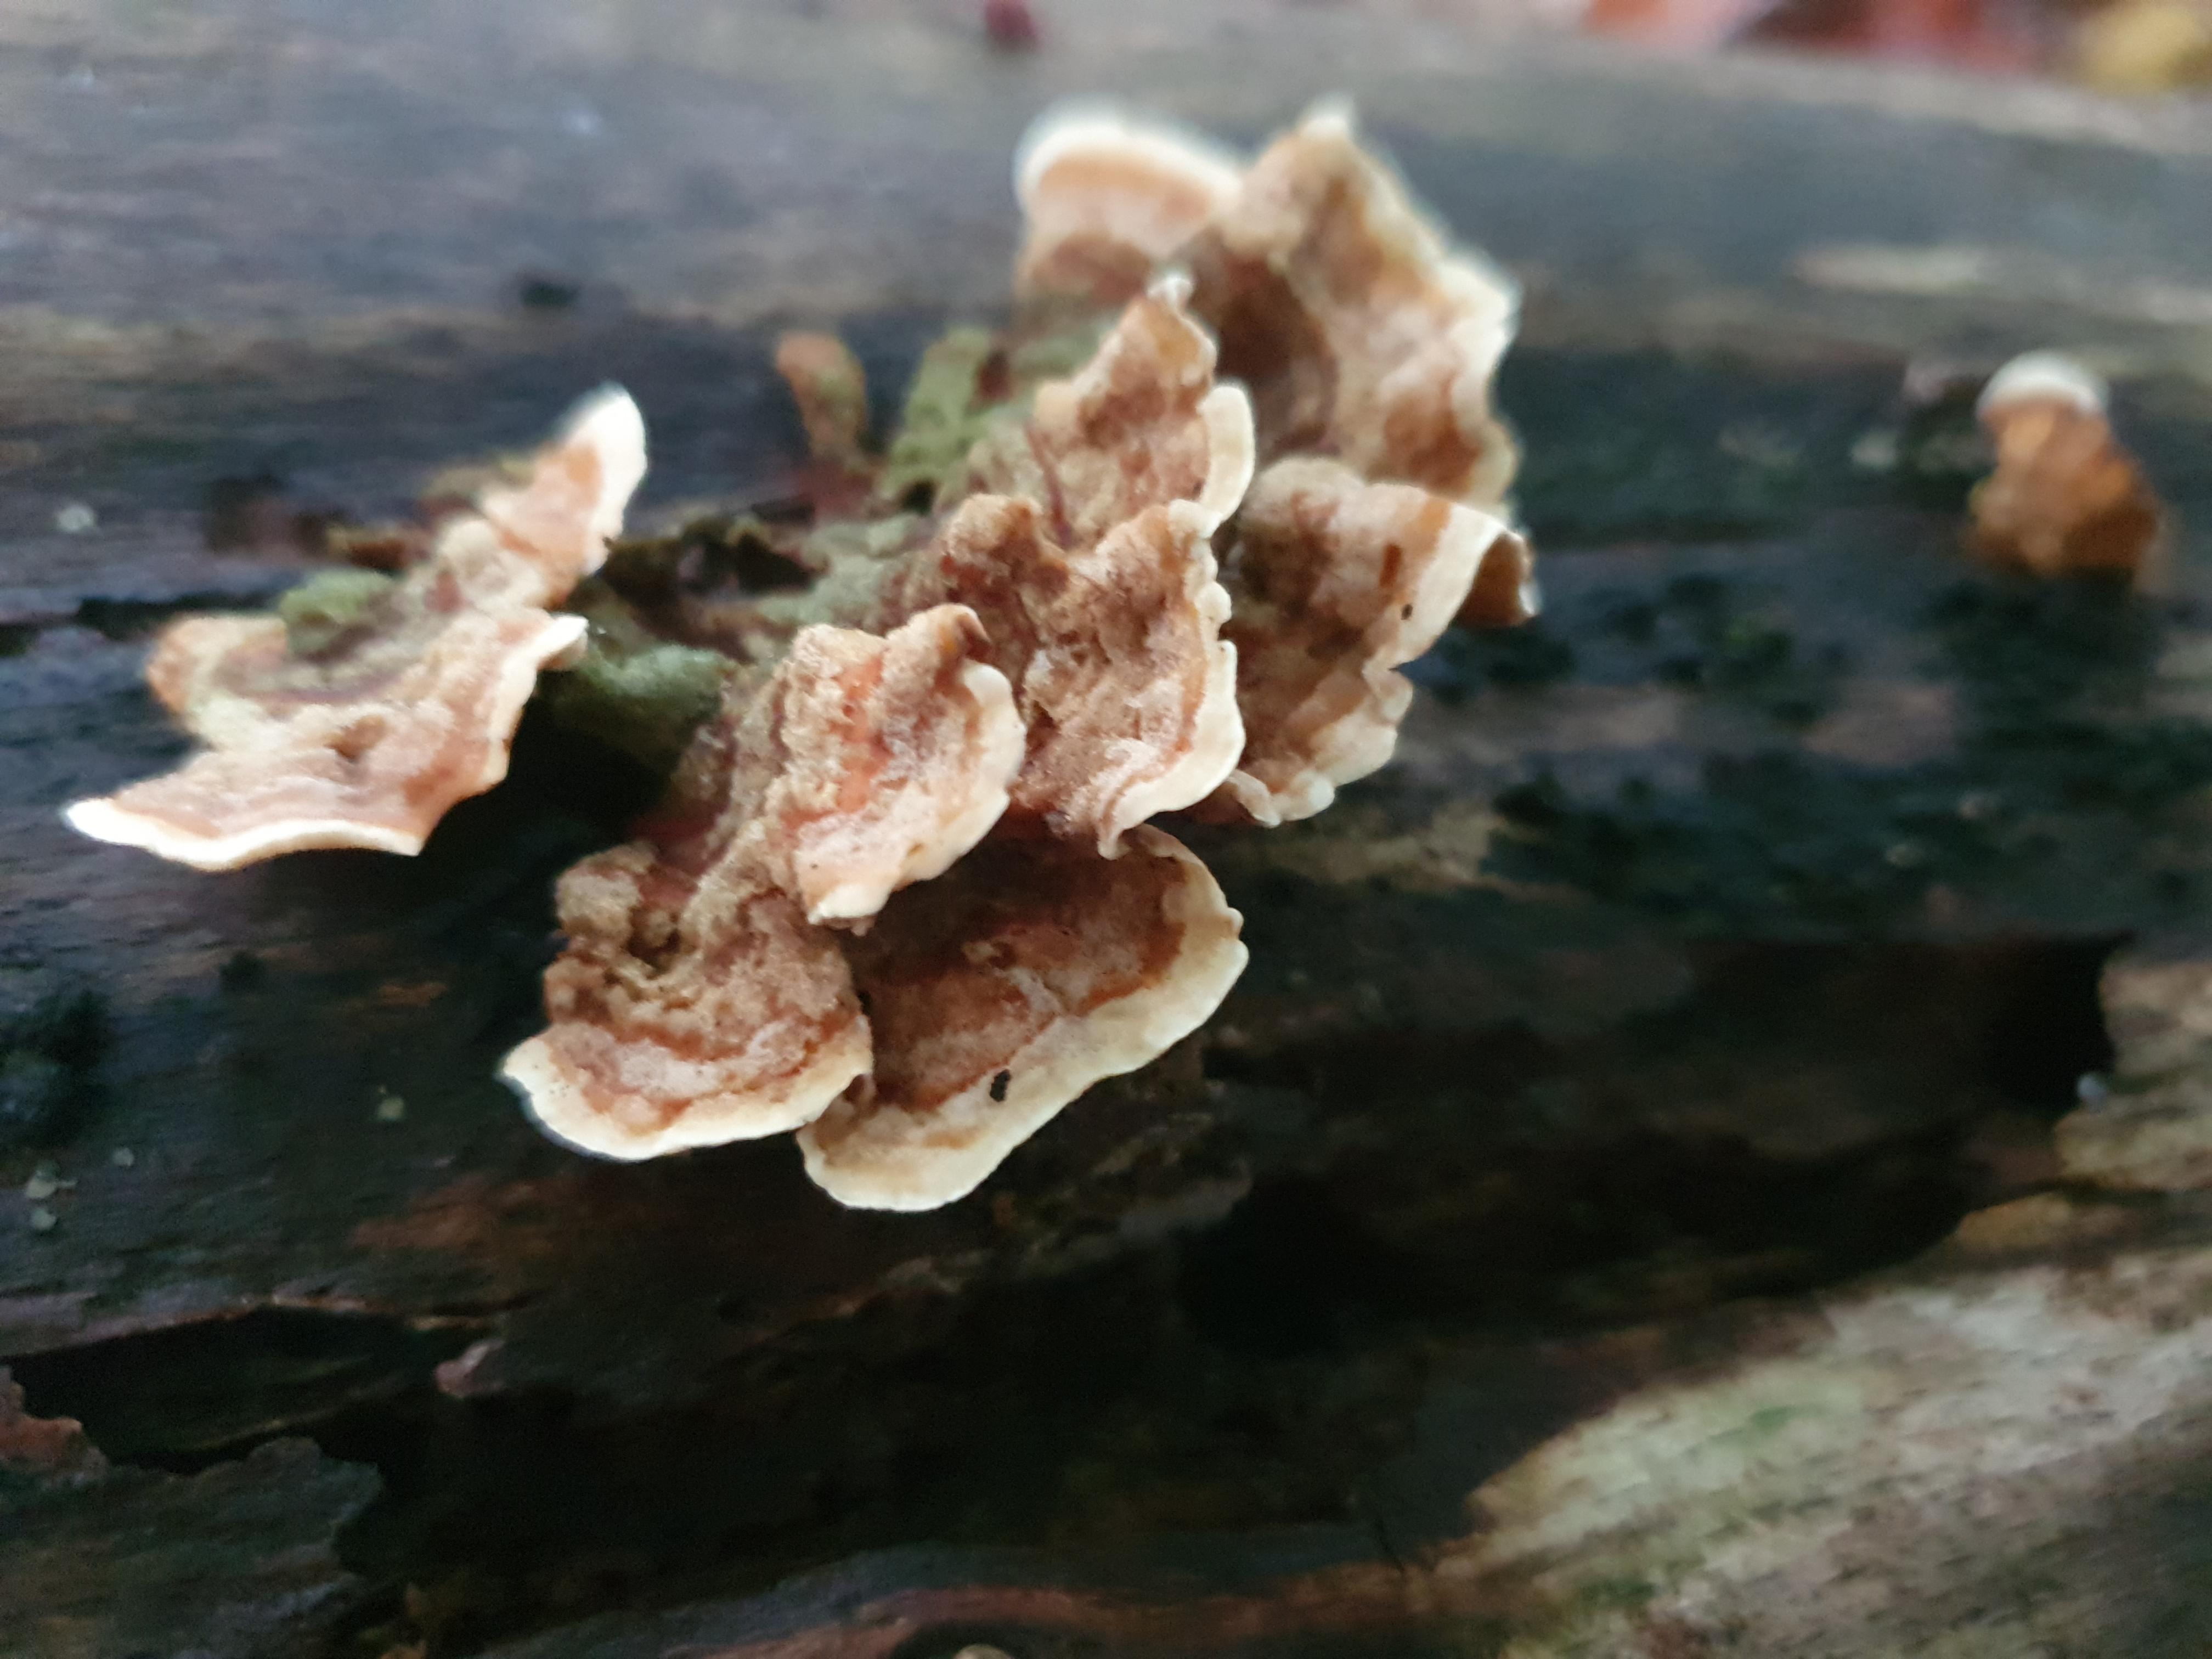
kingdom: Fungi
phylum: Basidiomycota
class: Agaricomycetes
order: Russulales
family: Stereaceae
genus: Stereum
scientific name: Stereum subtomentosum
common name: smuk lædersvamp
